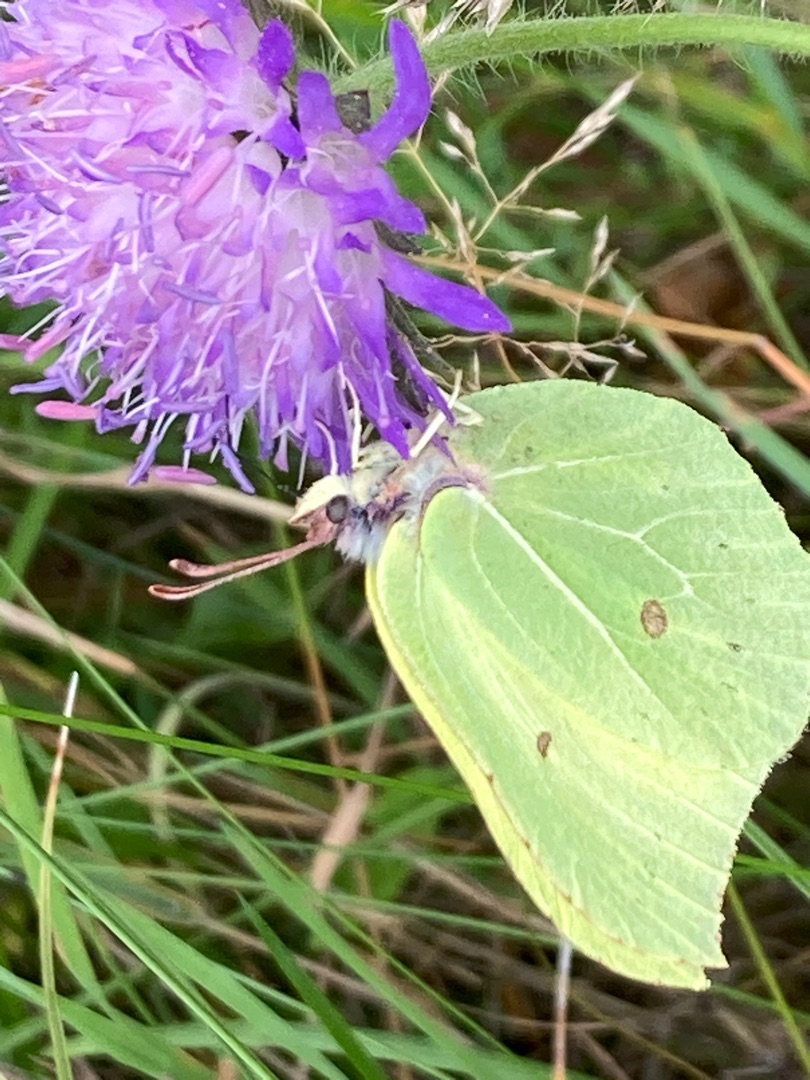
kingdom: Animalia
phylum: Arthropoda
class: Insecta
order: Lepidoptera
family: Pieridae
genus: Gonepteryx
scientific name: Gonepteryx rhamni
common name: Citronsommerfugl
